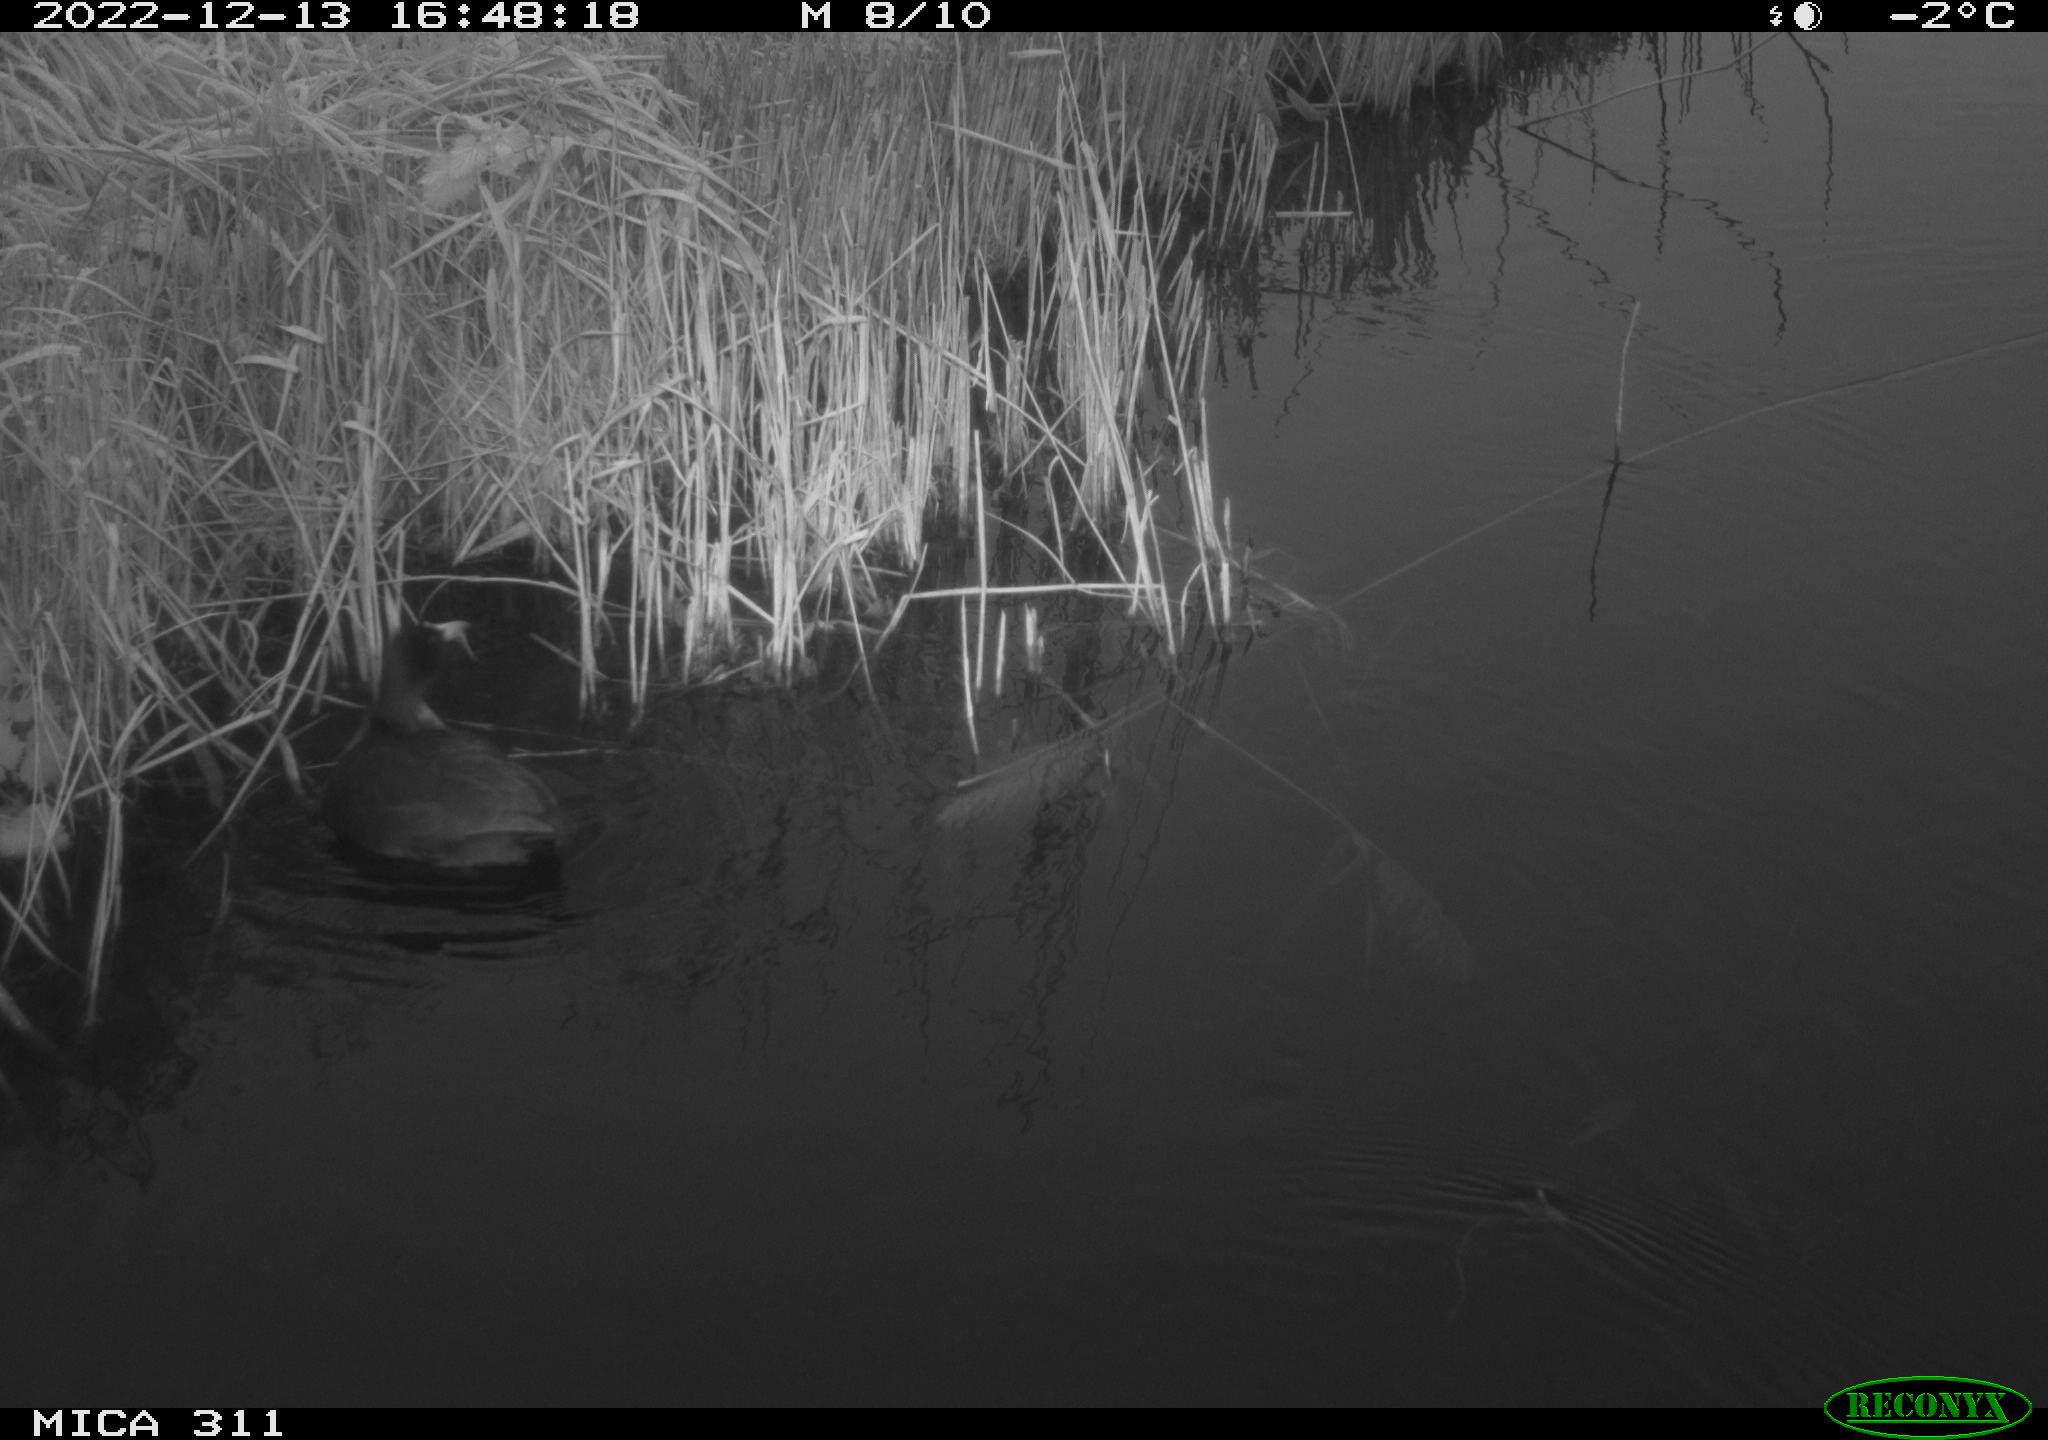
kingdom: Animalia
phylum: Chordata
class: Aves
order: Gruiformes
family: Rallidae
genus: Fulica
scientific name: Fulica atra
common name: Eurasian coot
